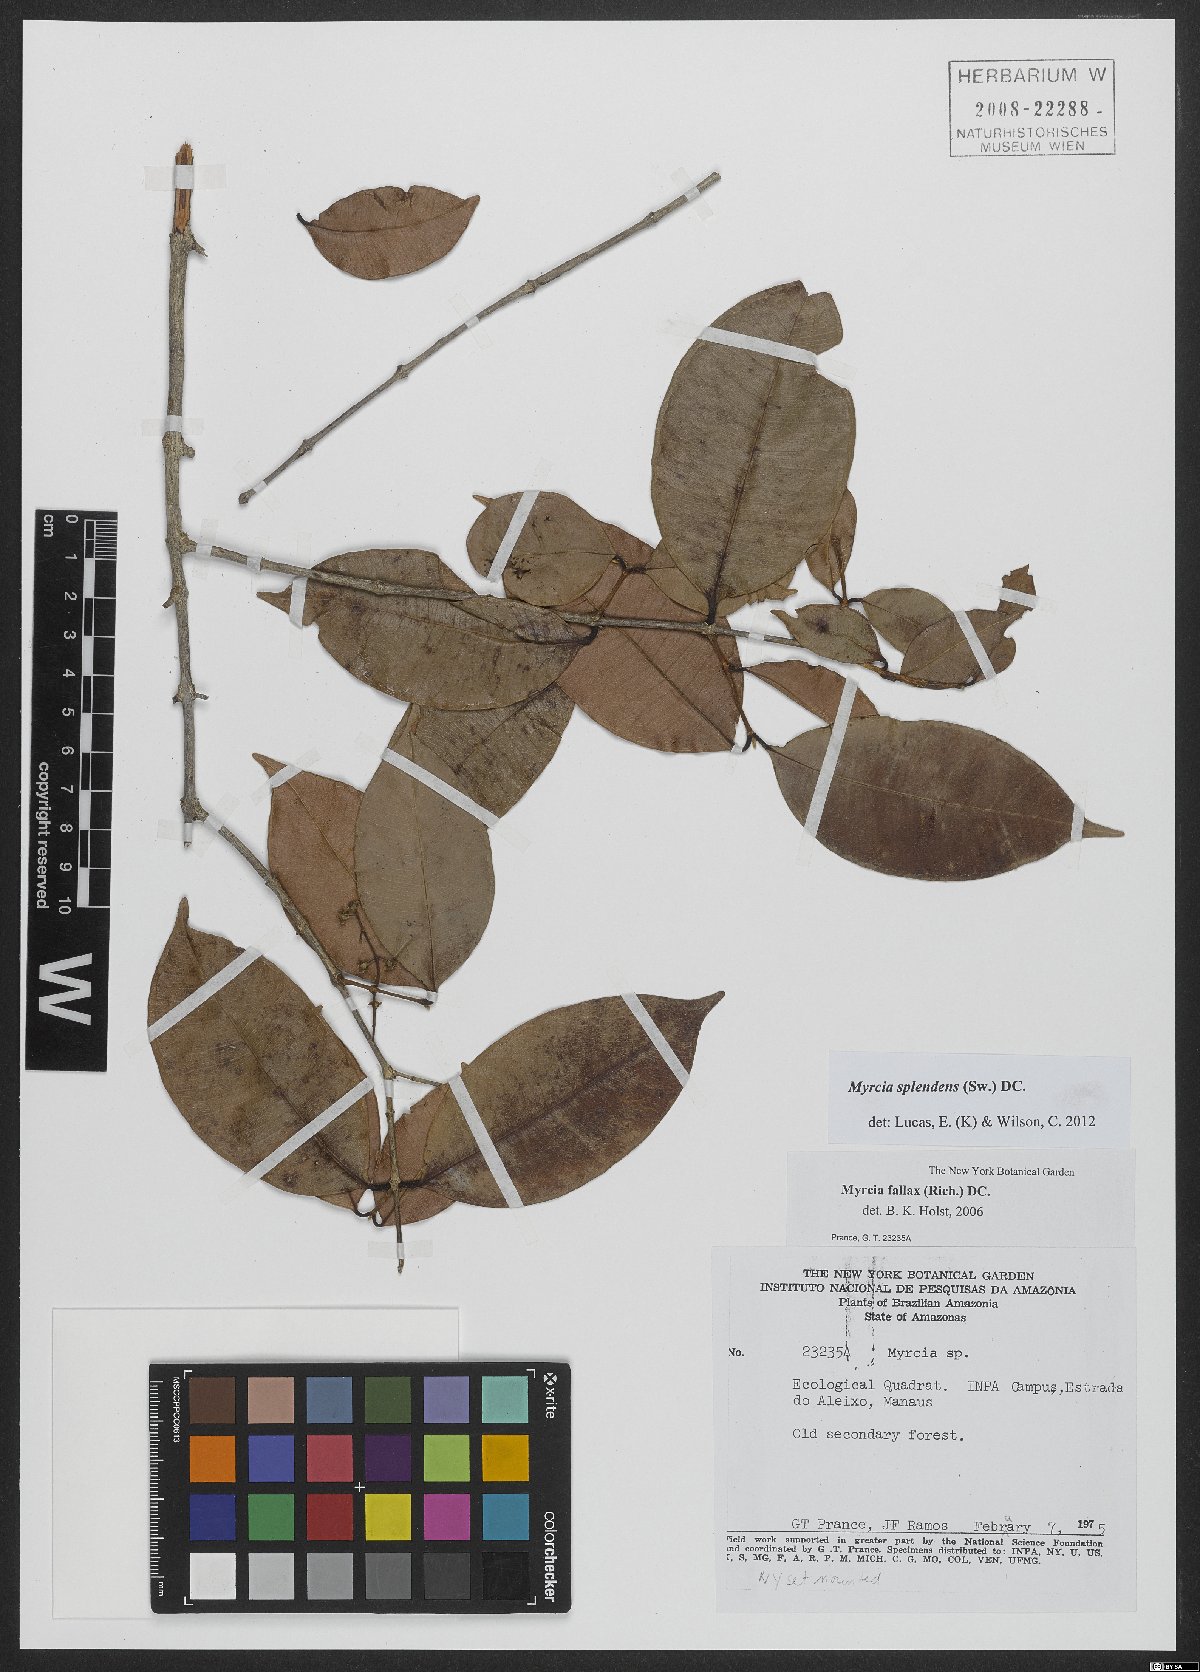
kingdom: Plantae
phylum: Tracheophyta
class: Magnoliopsida
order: Myrtales
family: Myrtaceae
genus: Myrcia
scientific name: Myrcia splendens
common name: Surinam cherry
